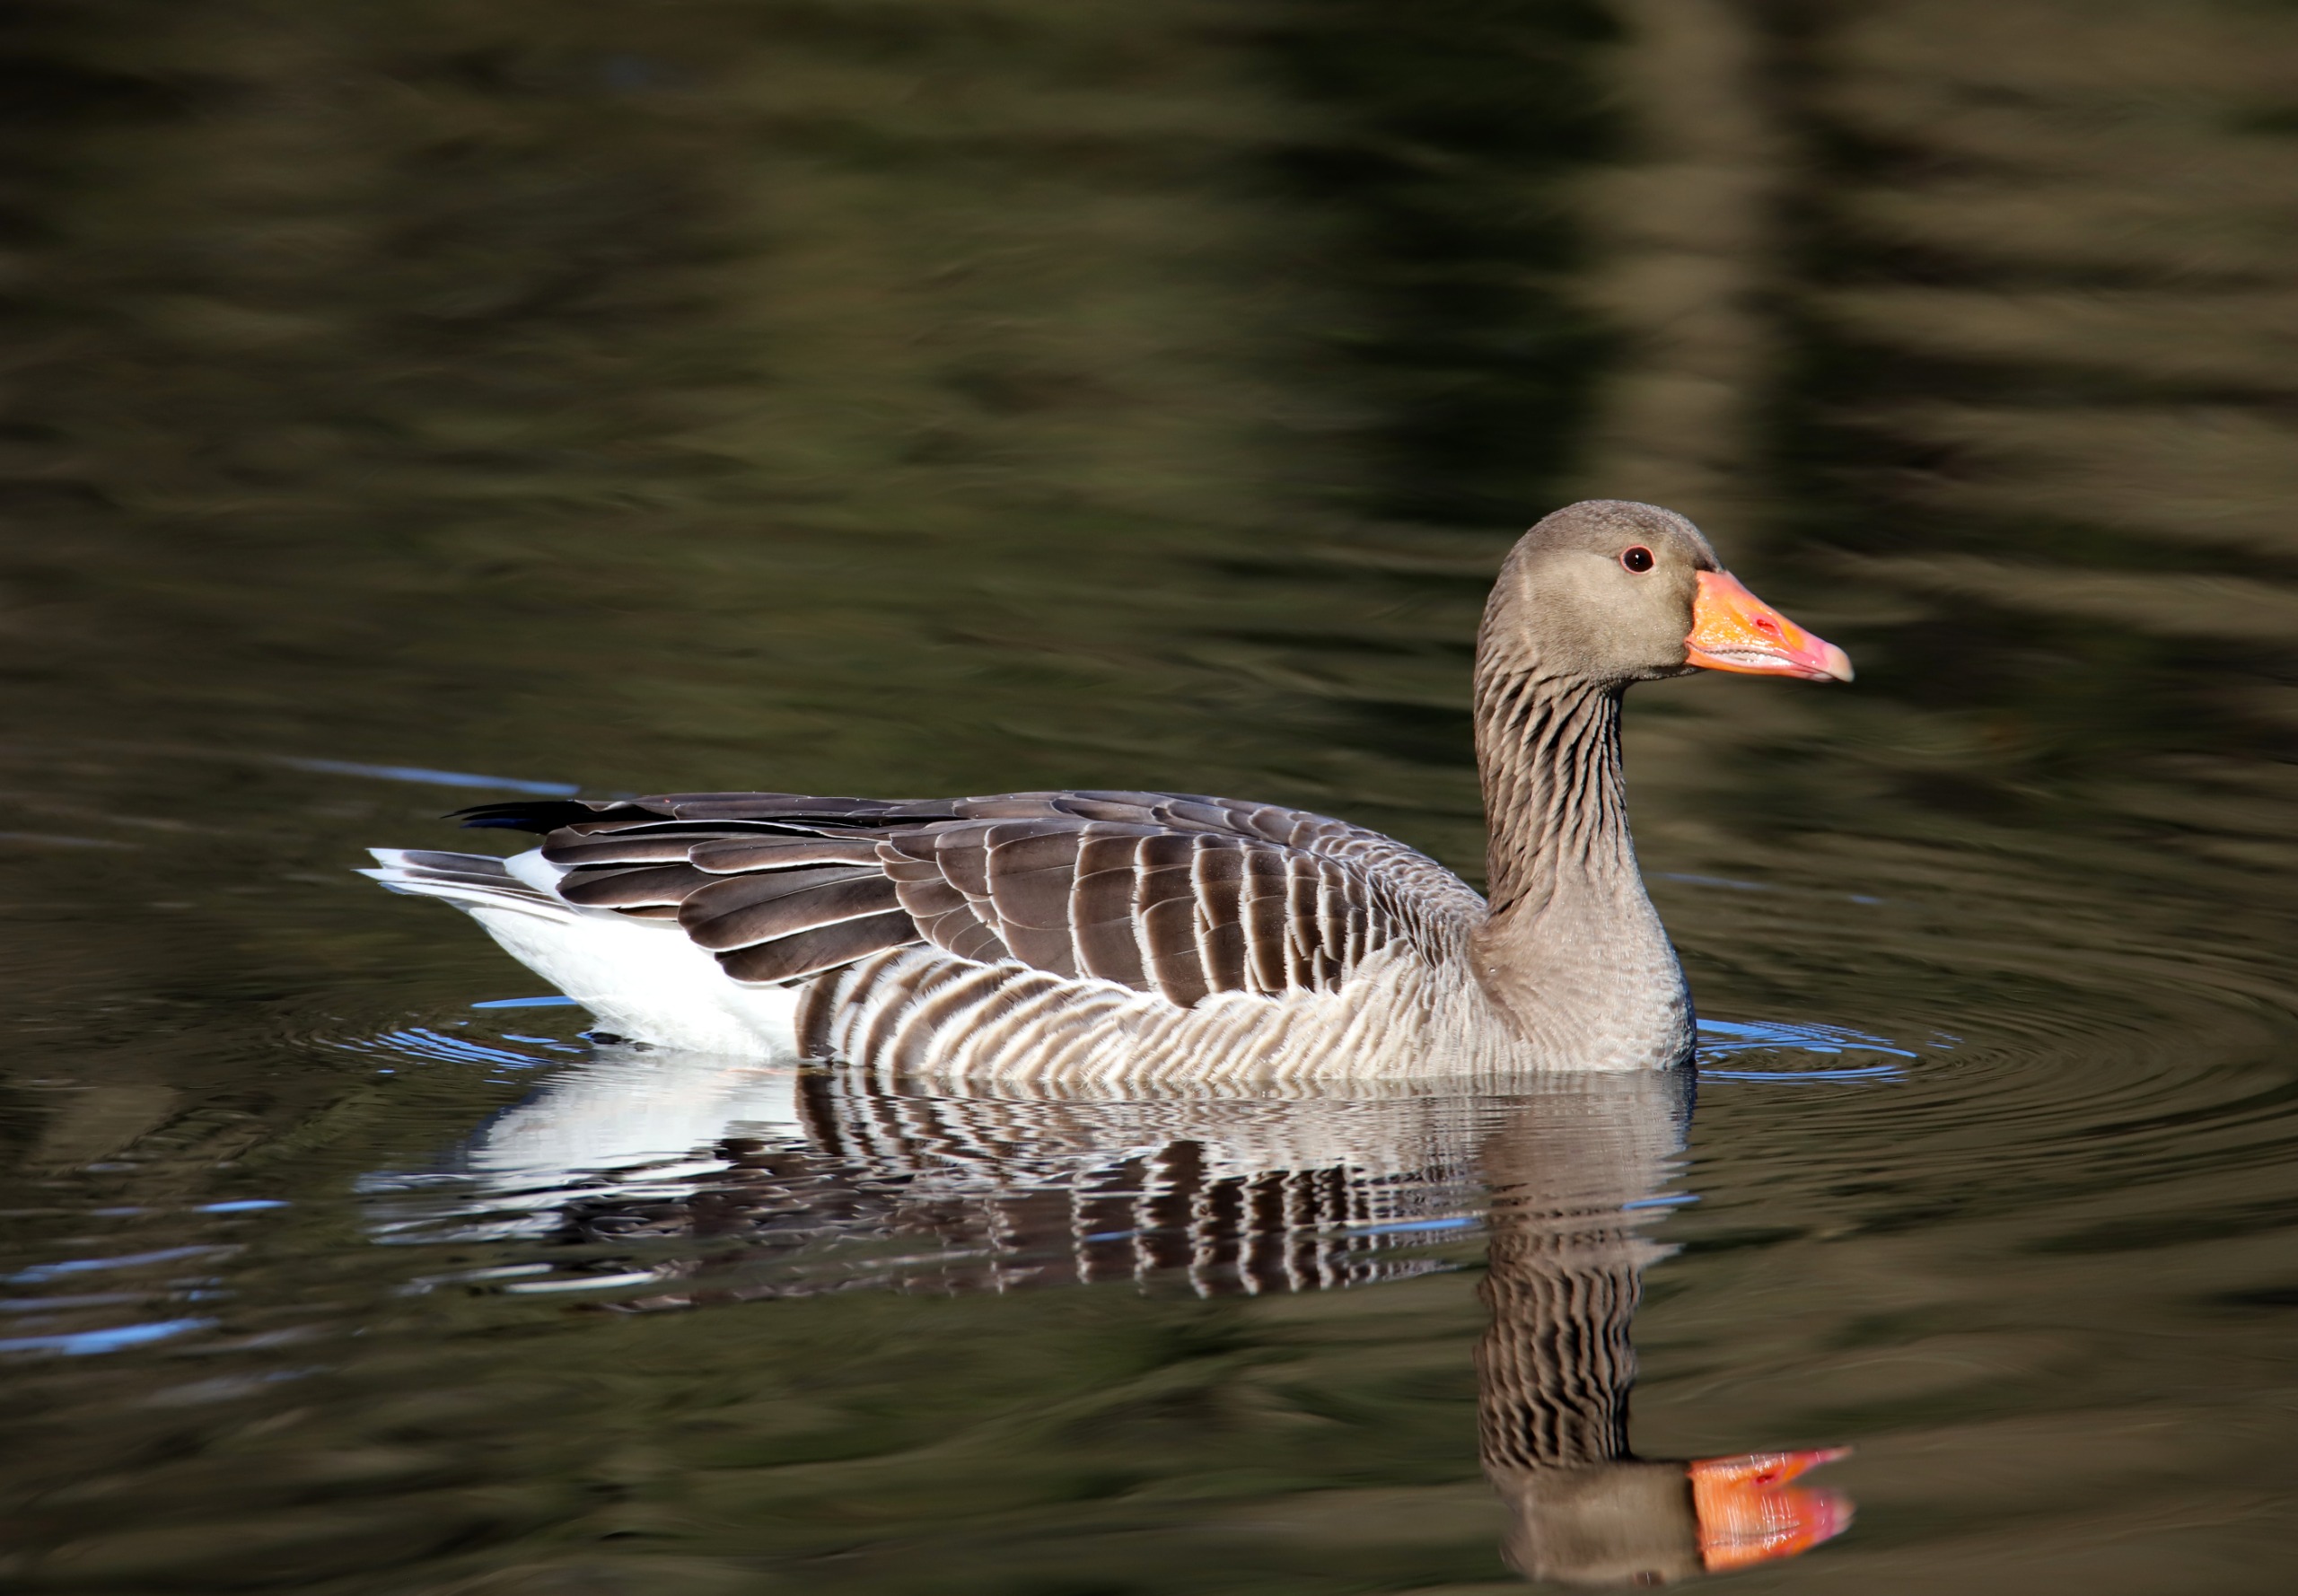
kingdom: Animalia
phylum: Chordata
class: Aves
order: Anseriformes
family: Anatidae
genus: Anser
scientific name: Anser anser
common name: Grågås
